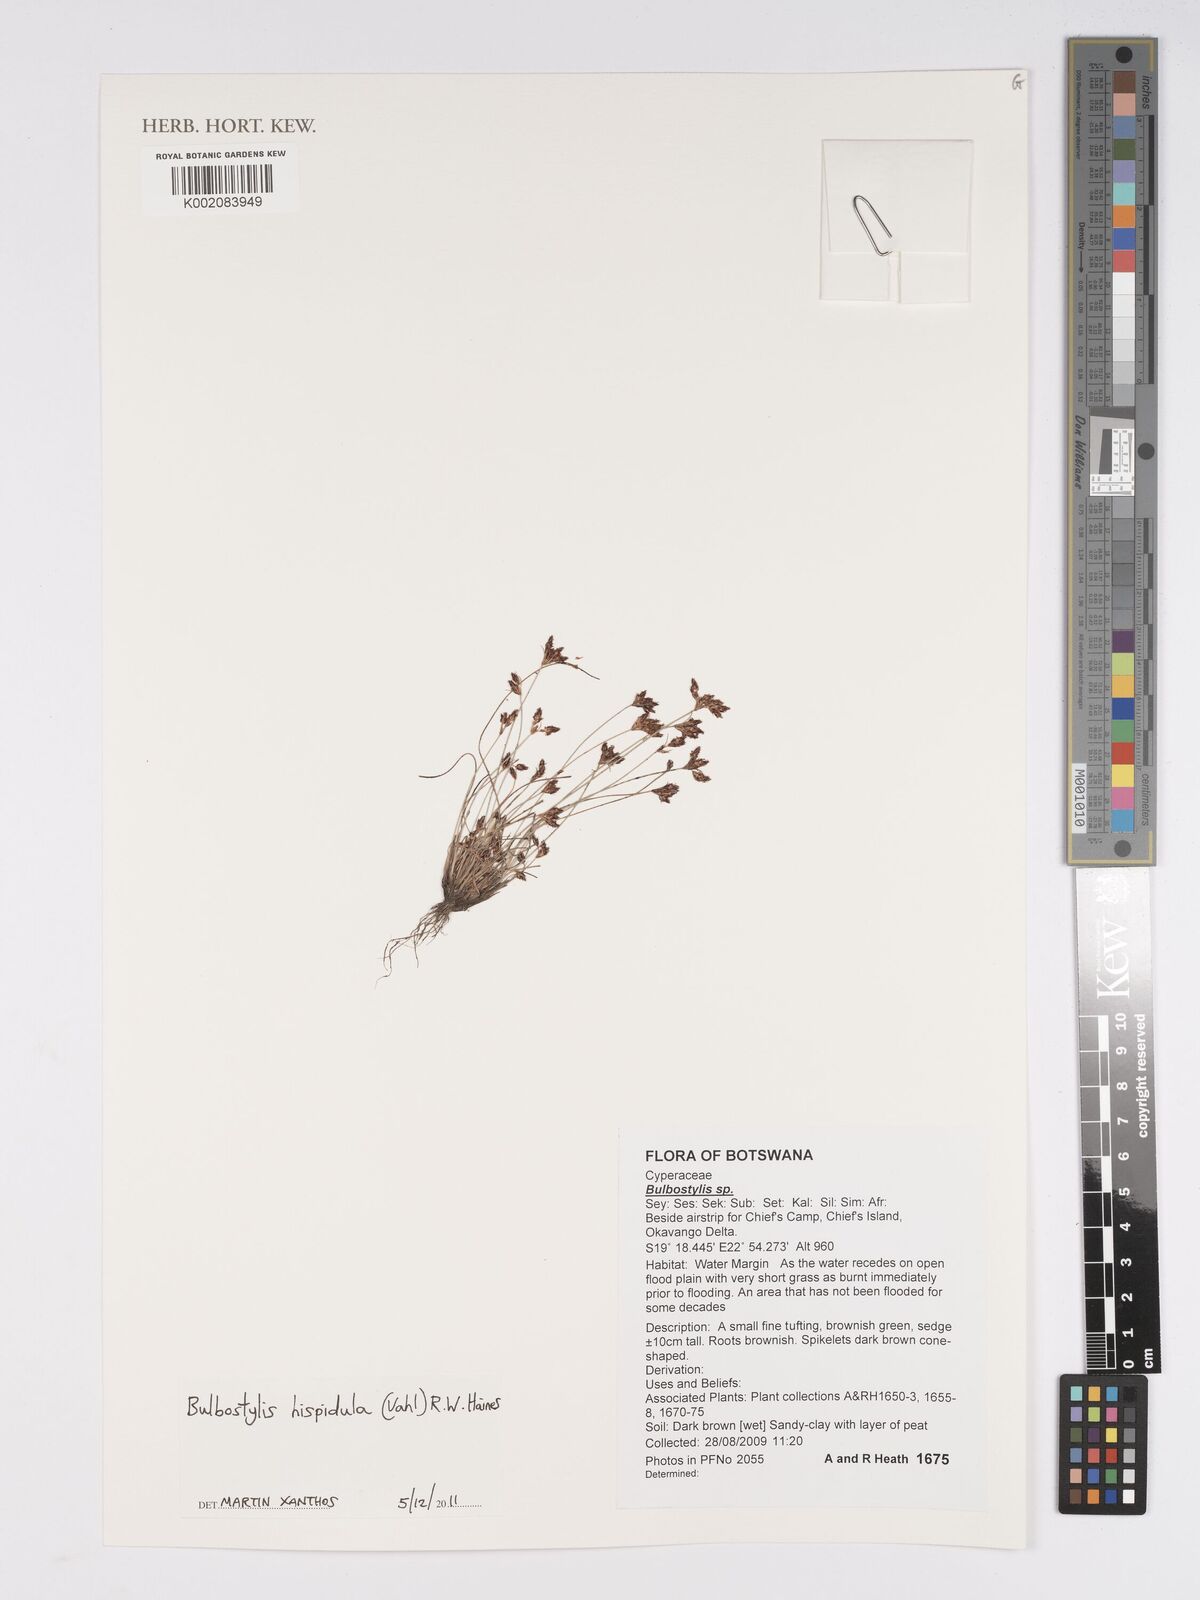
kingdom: Plantae
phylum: Tracheophyta
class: Liliopsida
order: Poales
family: Cyperaceae
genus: Bulbostylis
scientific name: Bulbostylis hispidula
